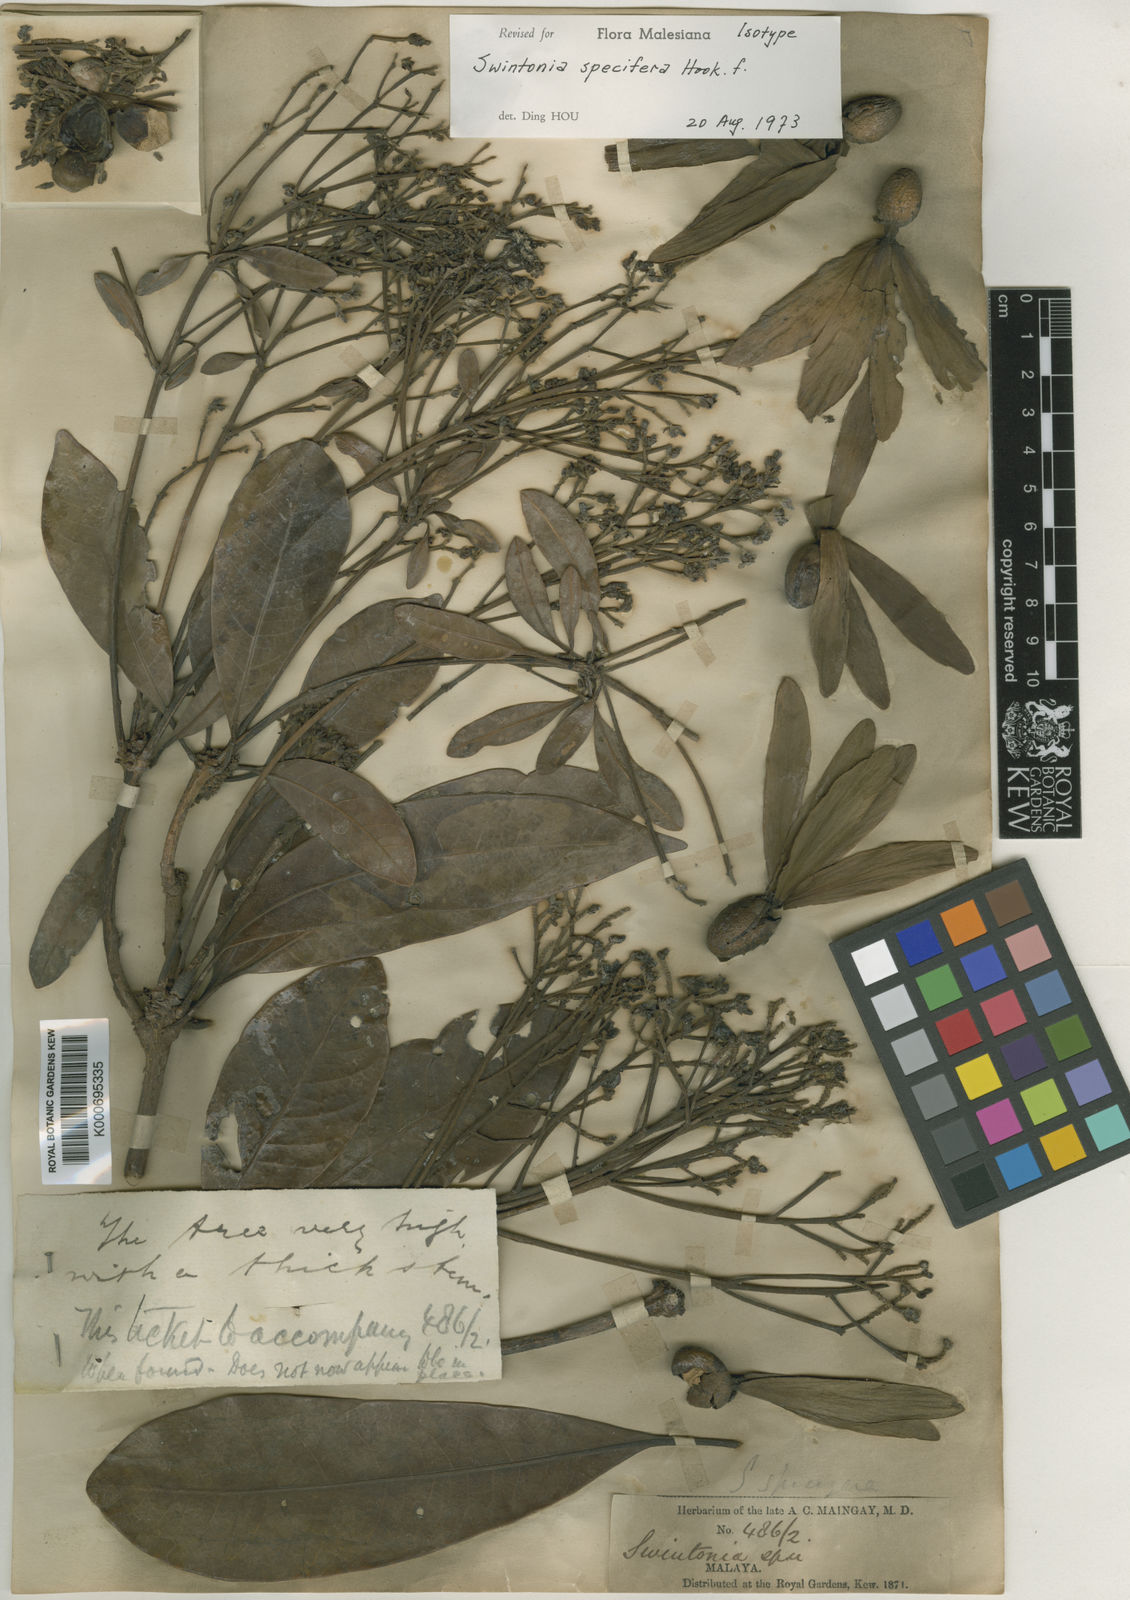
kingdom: Plantae
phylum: Tracheophyta
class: Magnoliopsida
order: Sapindales
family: Anacardiaceae
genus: Swintonia
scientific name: Swintonia
